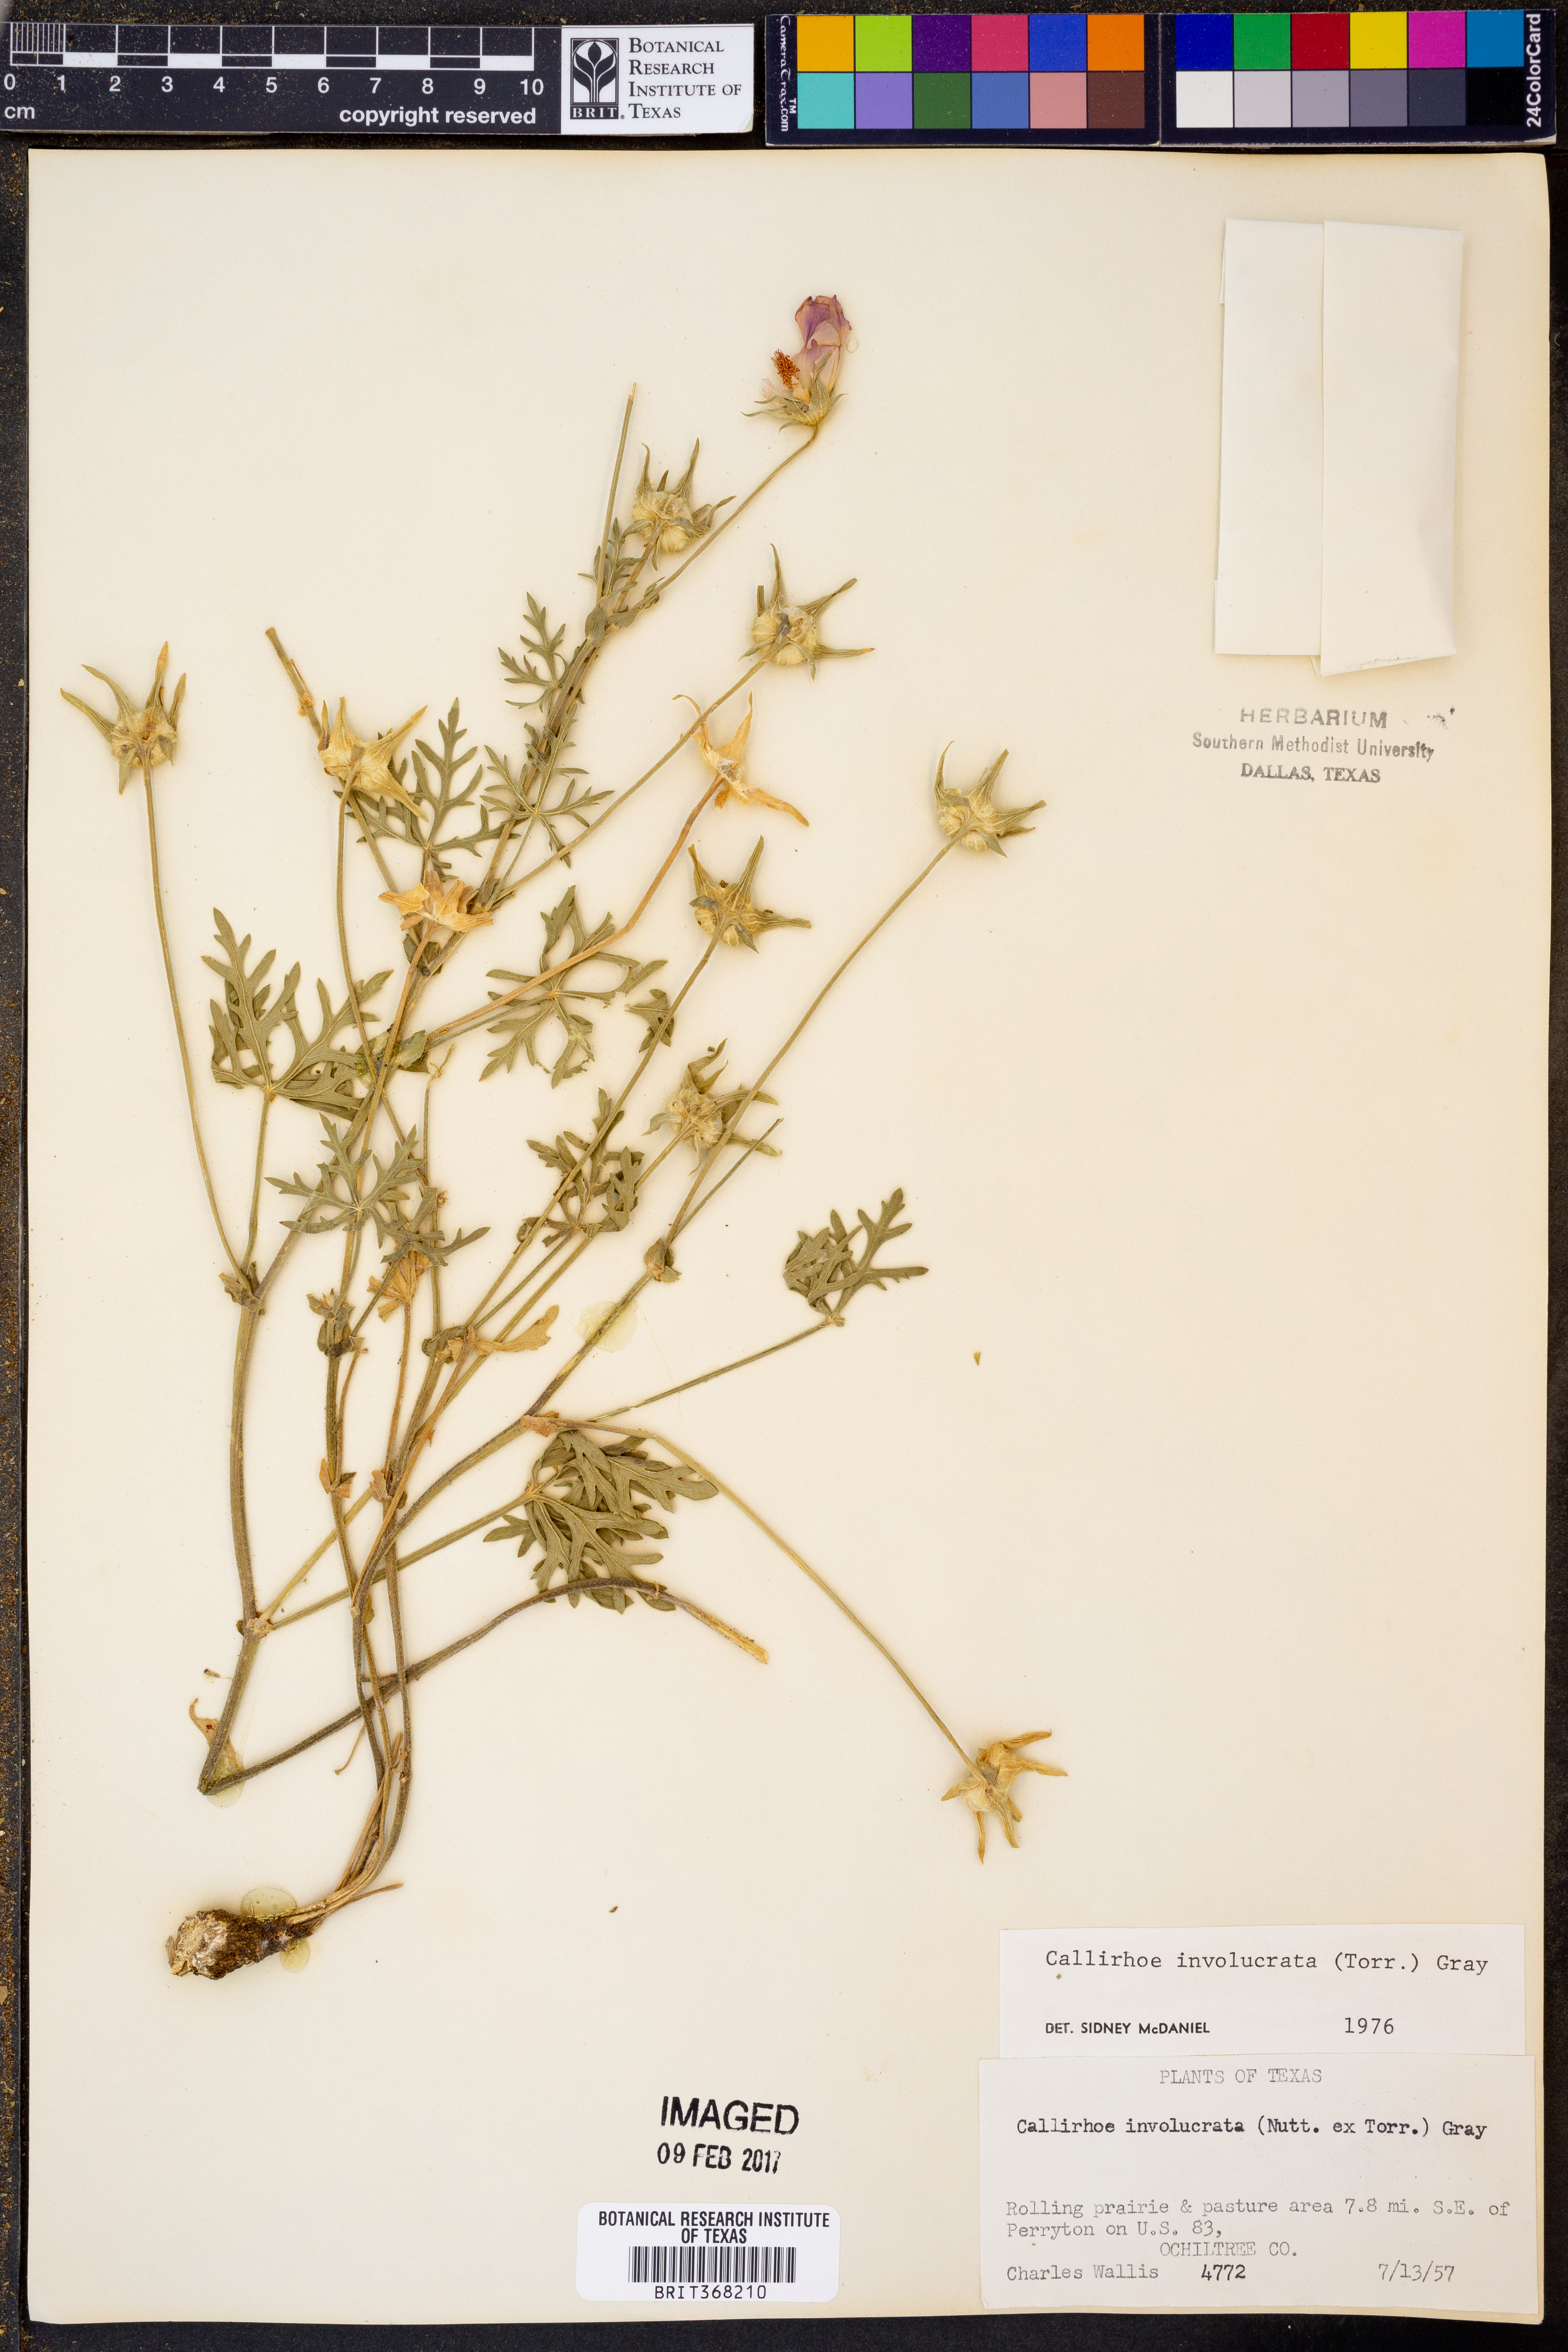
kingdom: Plantae
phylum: Tracheophyta
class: Magnoliopsida
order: Malvales
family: Malvaceae
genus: Callirhoe
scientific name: Callirhoe involucrata
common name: Purple poppy-mallow
